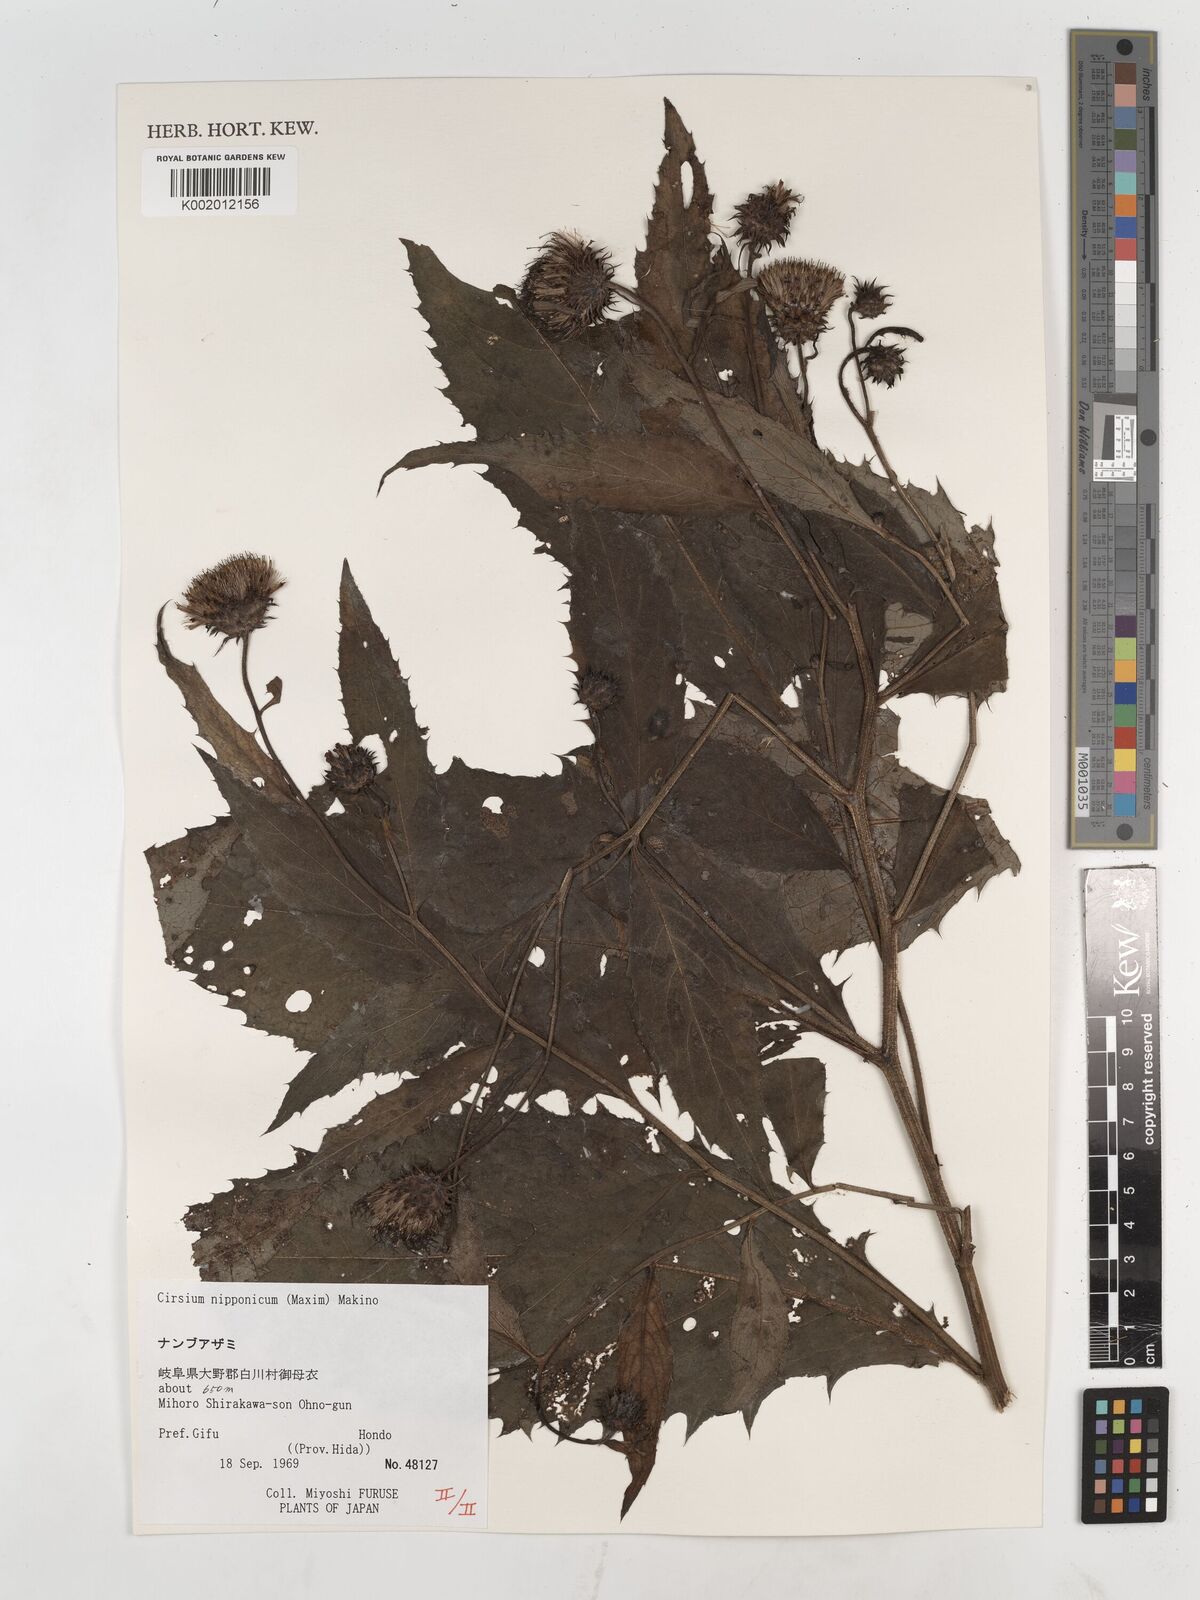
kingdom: Plantae
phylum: Tracheophyta
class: Magnoliopsida
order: Asterales
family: Asteraceae
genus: Cirsium
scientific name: Cirsium nippoense
